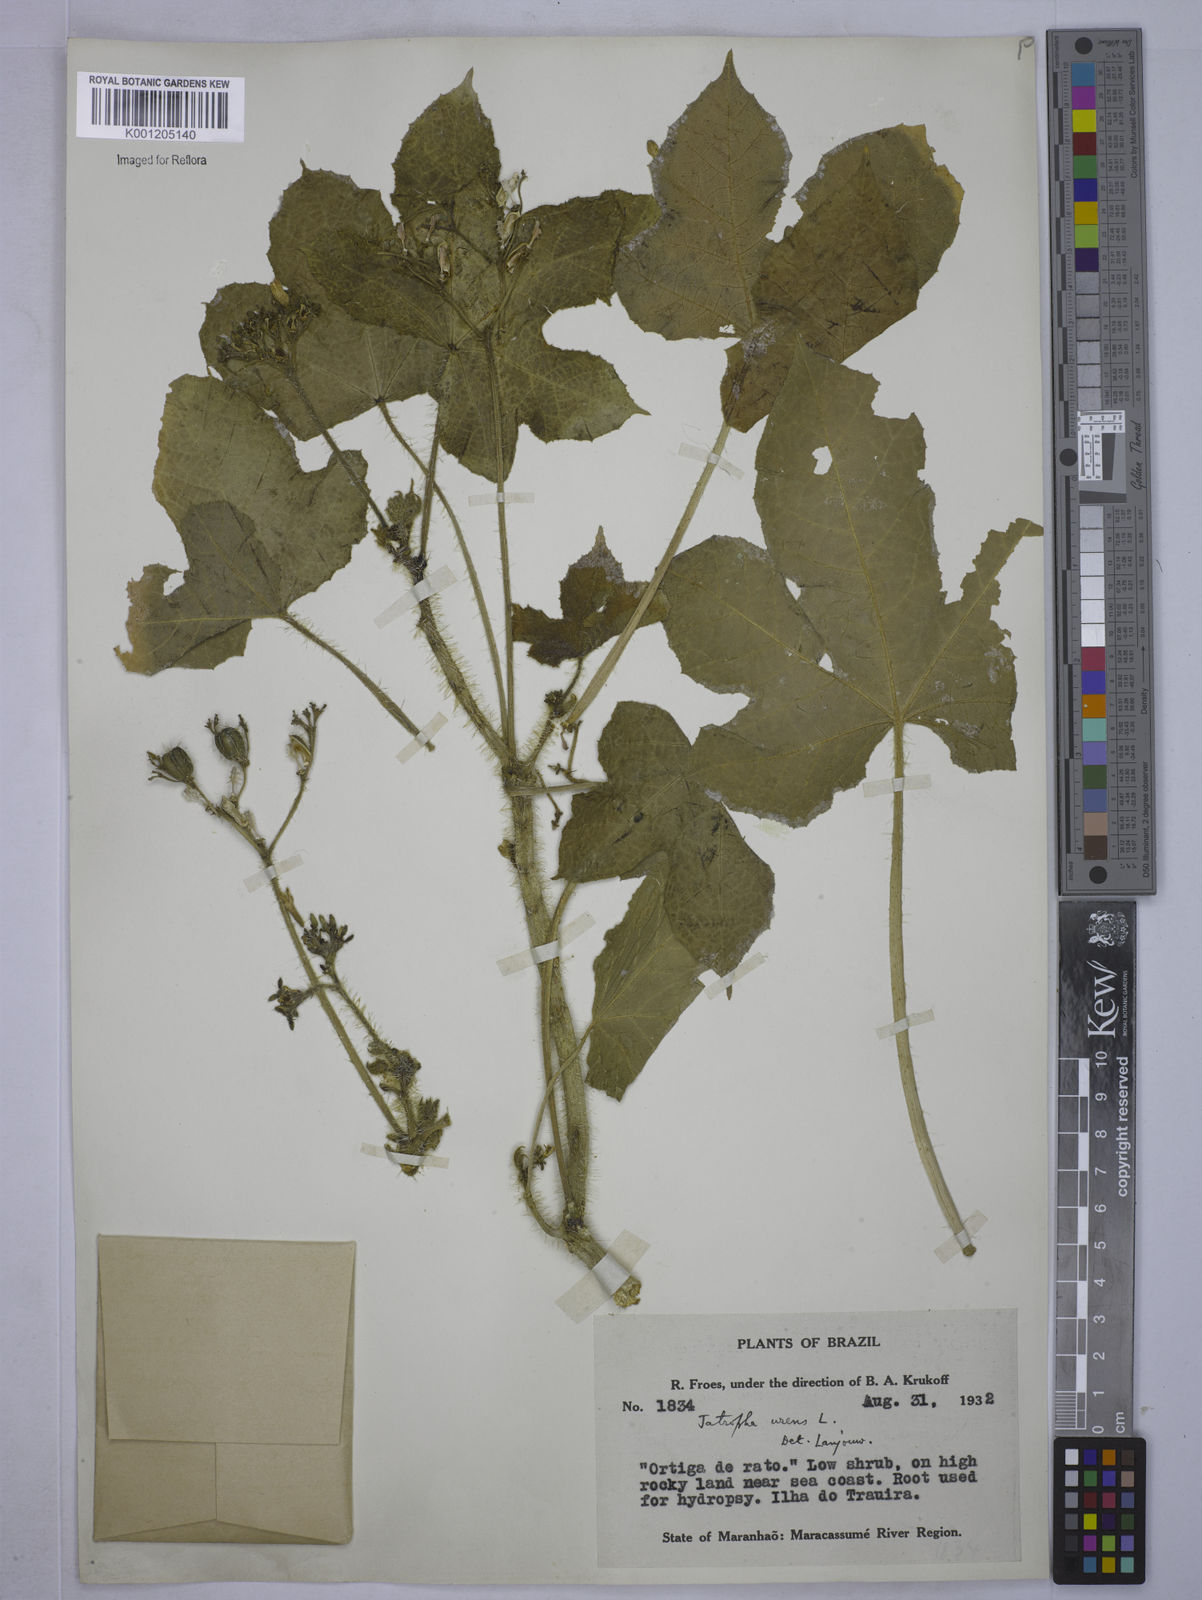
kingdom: Plantae
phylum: Tracheophyta
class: Magnoliopsida
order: Malpighiales
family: Euphorbiaceae
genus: Cnidoscolus
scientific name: Cnidoscolus urens
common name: Bull-nettle
